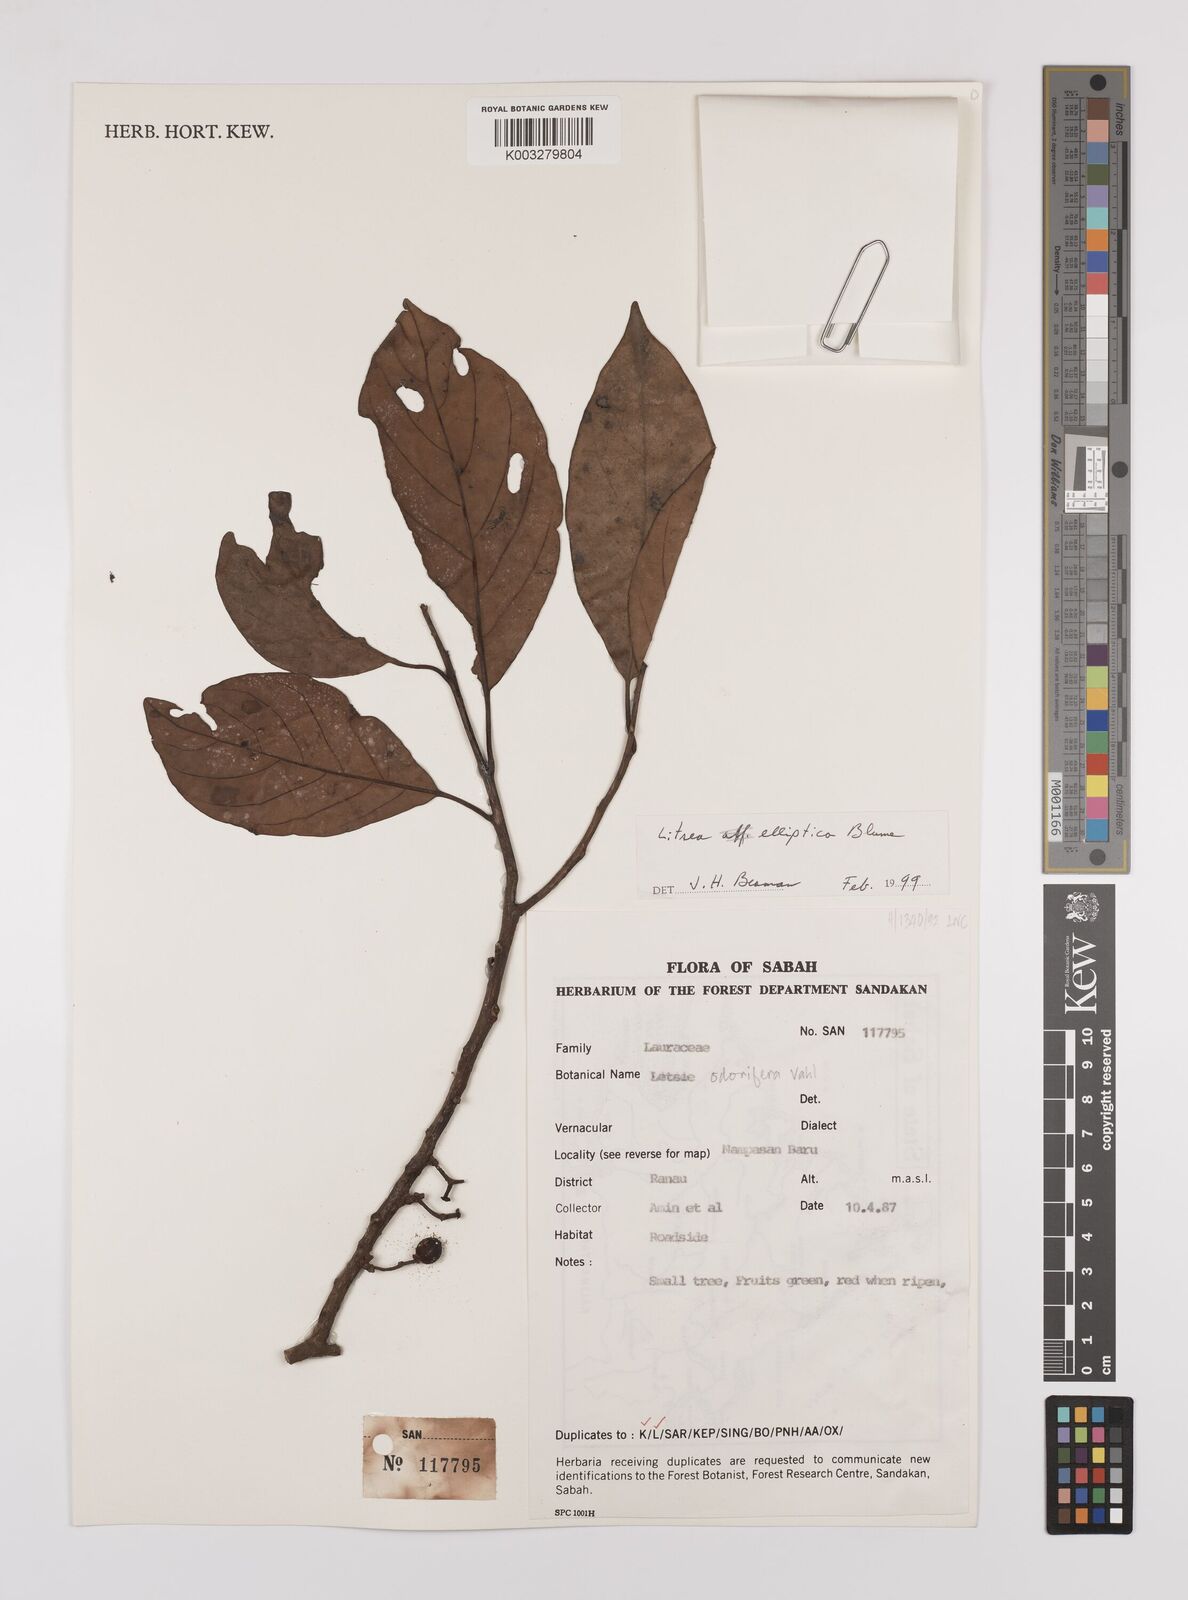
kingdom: Plantae
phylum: Tracheophyta
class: Magnoliopsida
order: Laurales
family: Lauraceae
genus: Litsea
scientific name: Litsea elliptica
